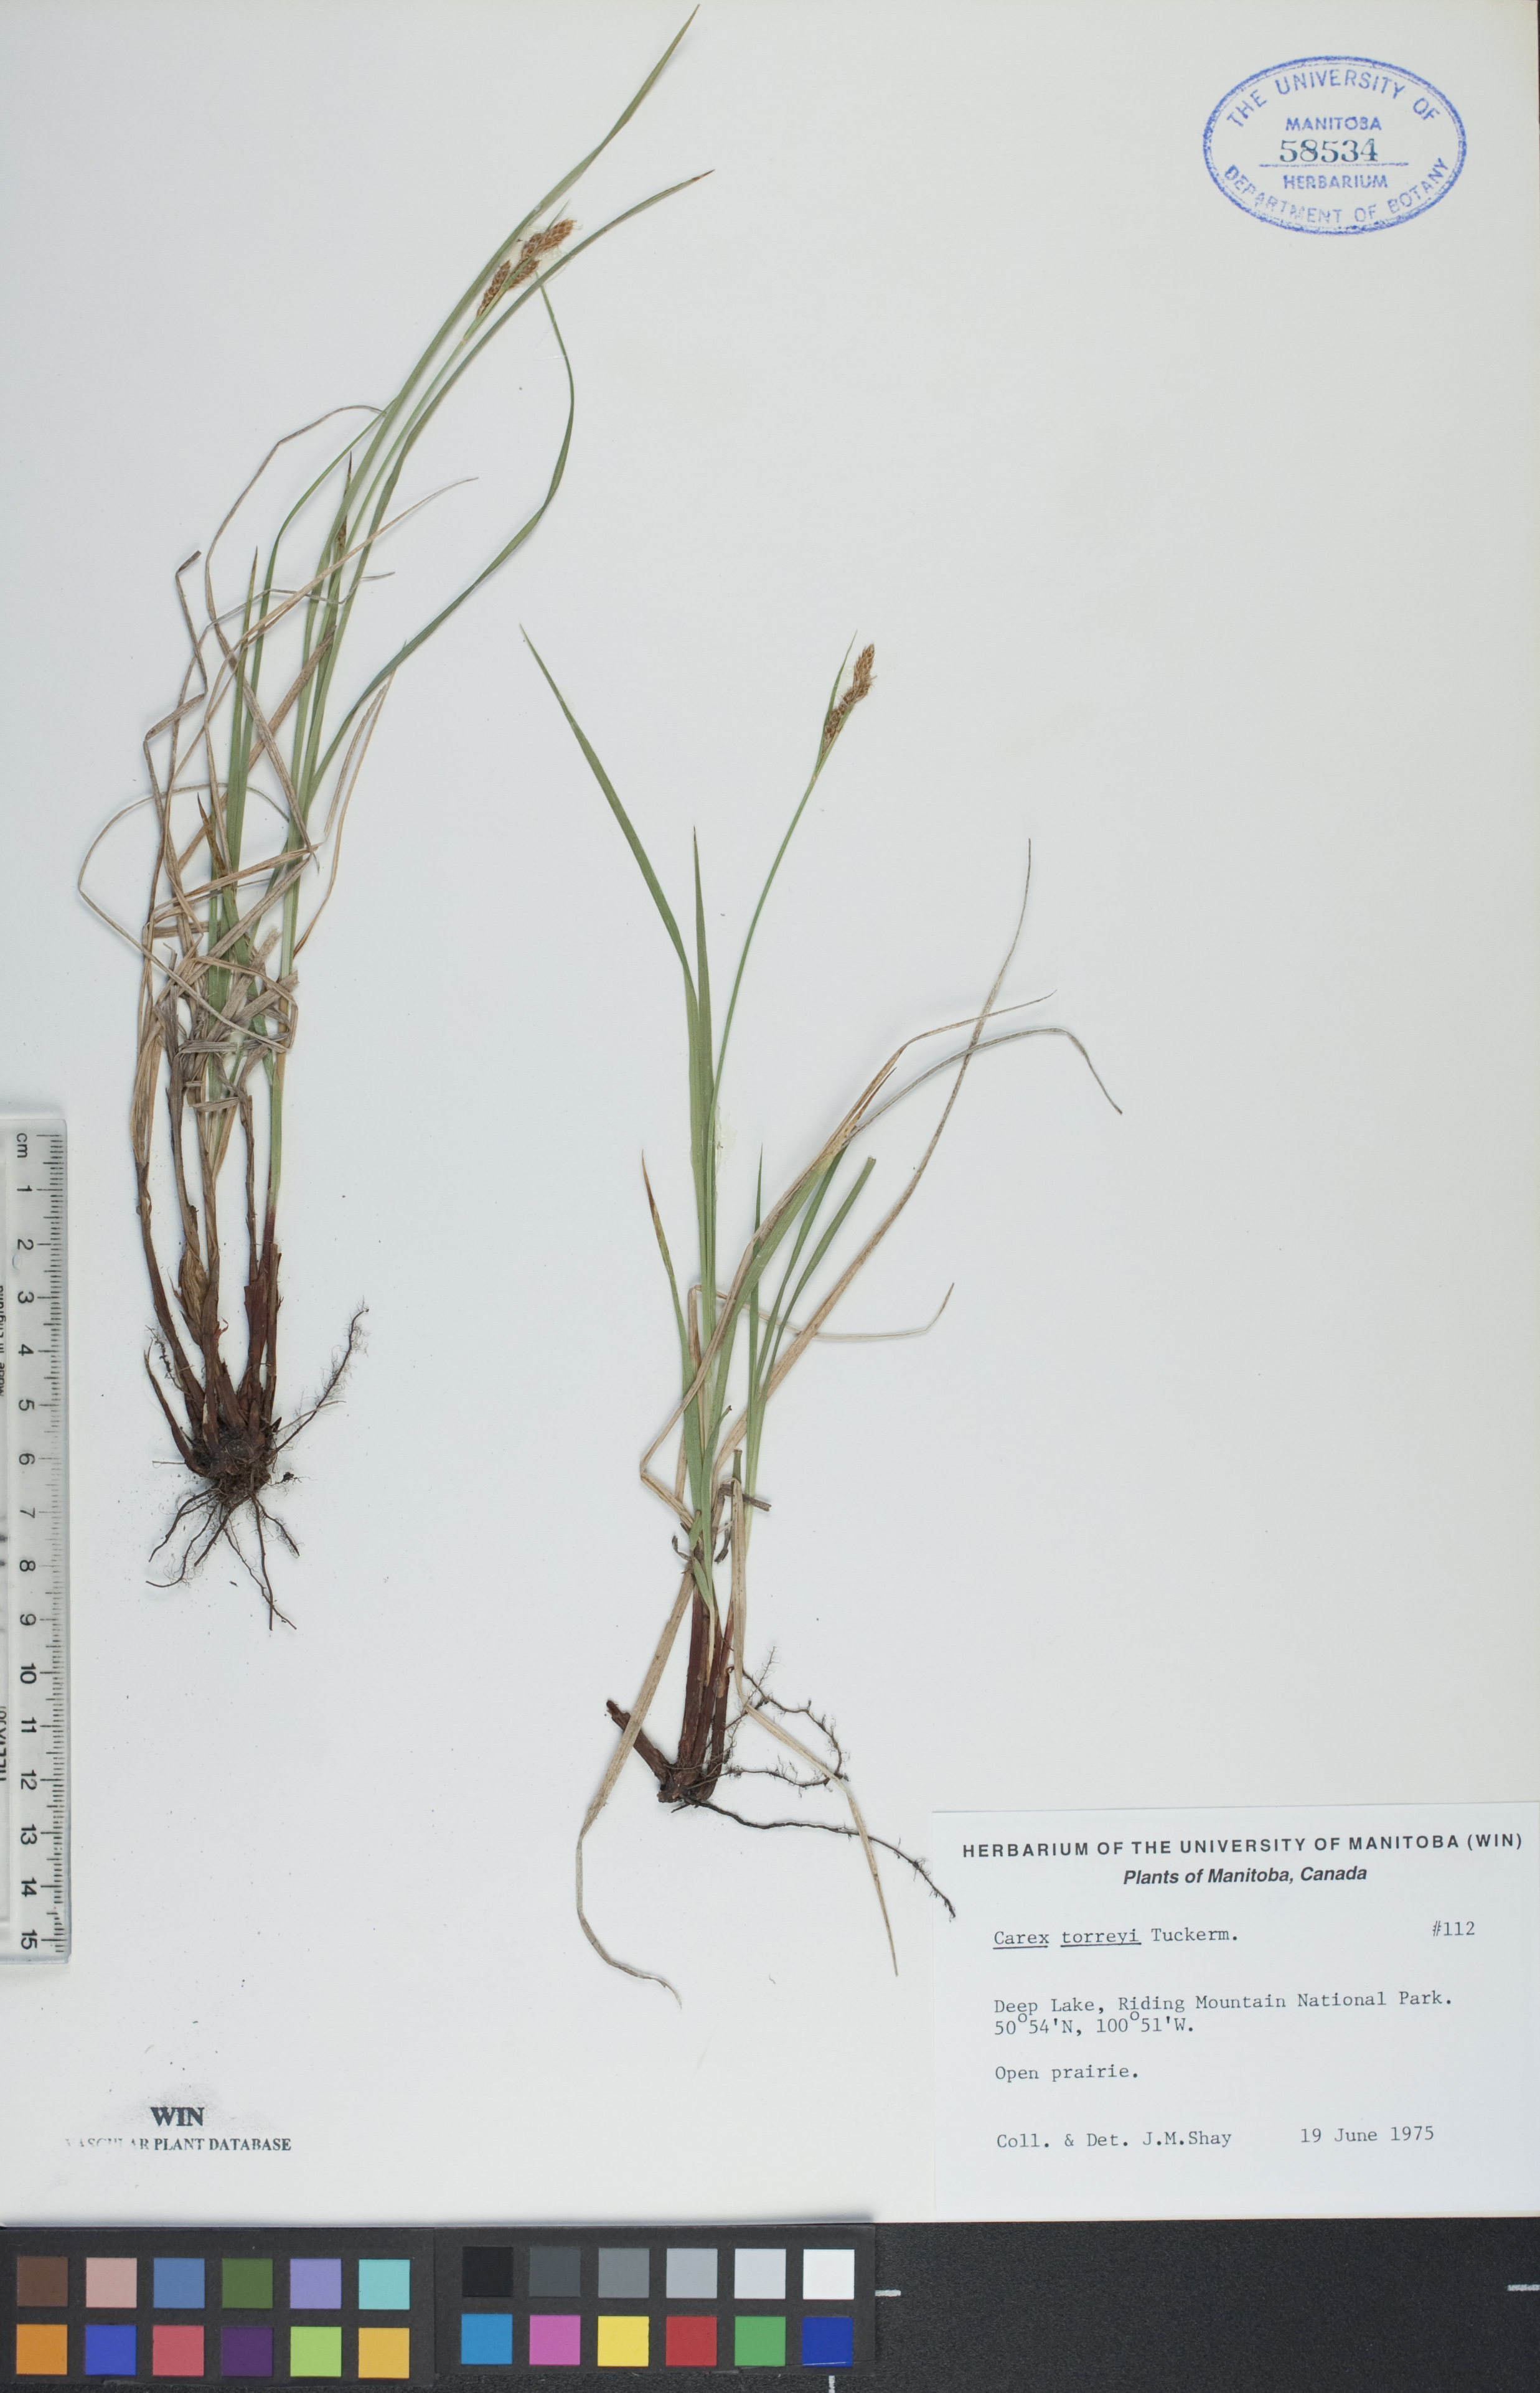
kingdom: Plantae
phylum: Tracheophyta
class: Liliopsida
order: Poales
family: Cyperaceae
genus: Carex
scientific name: Carex torreyi
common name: Torrey's sedge
